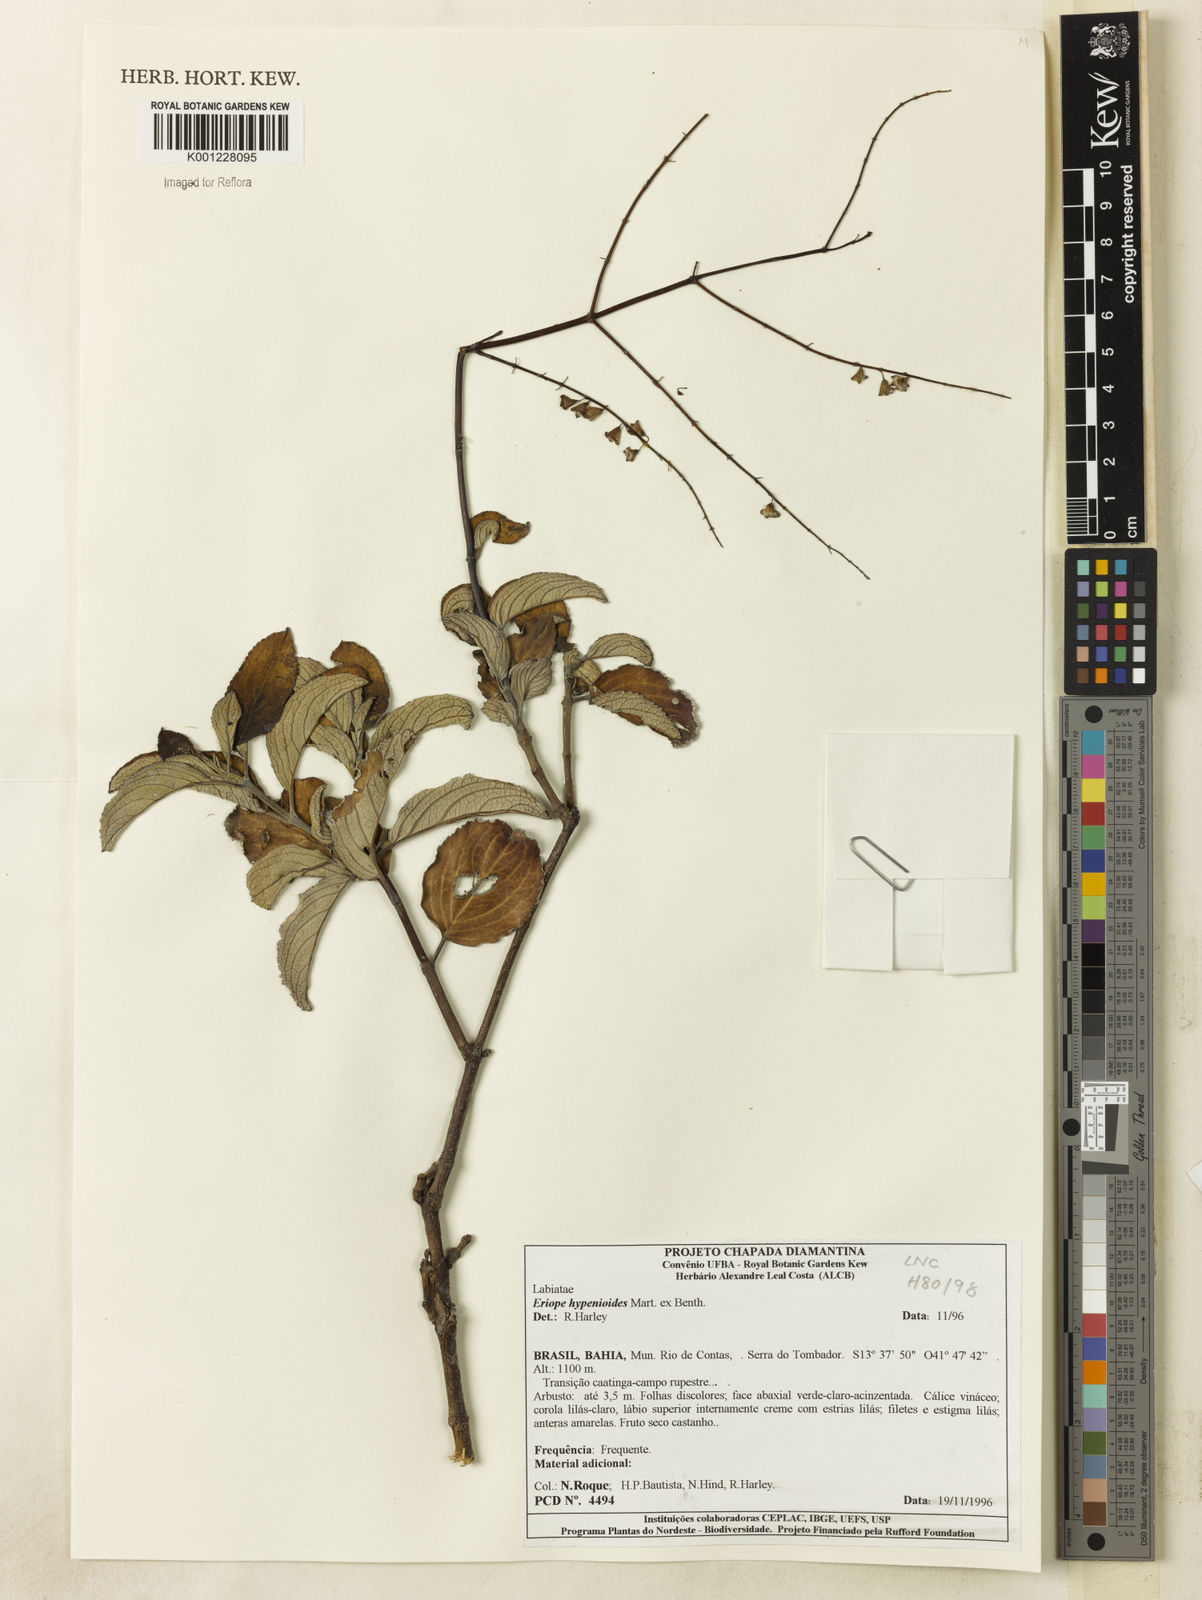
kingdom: Plantae
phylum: Tracheophyta
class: Magnoliopsida
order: Lamiales
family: Lamiaceae
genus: Eriope
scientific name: Eriope hypenioides
